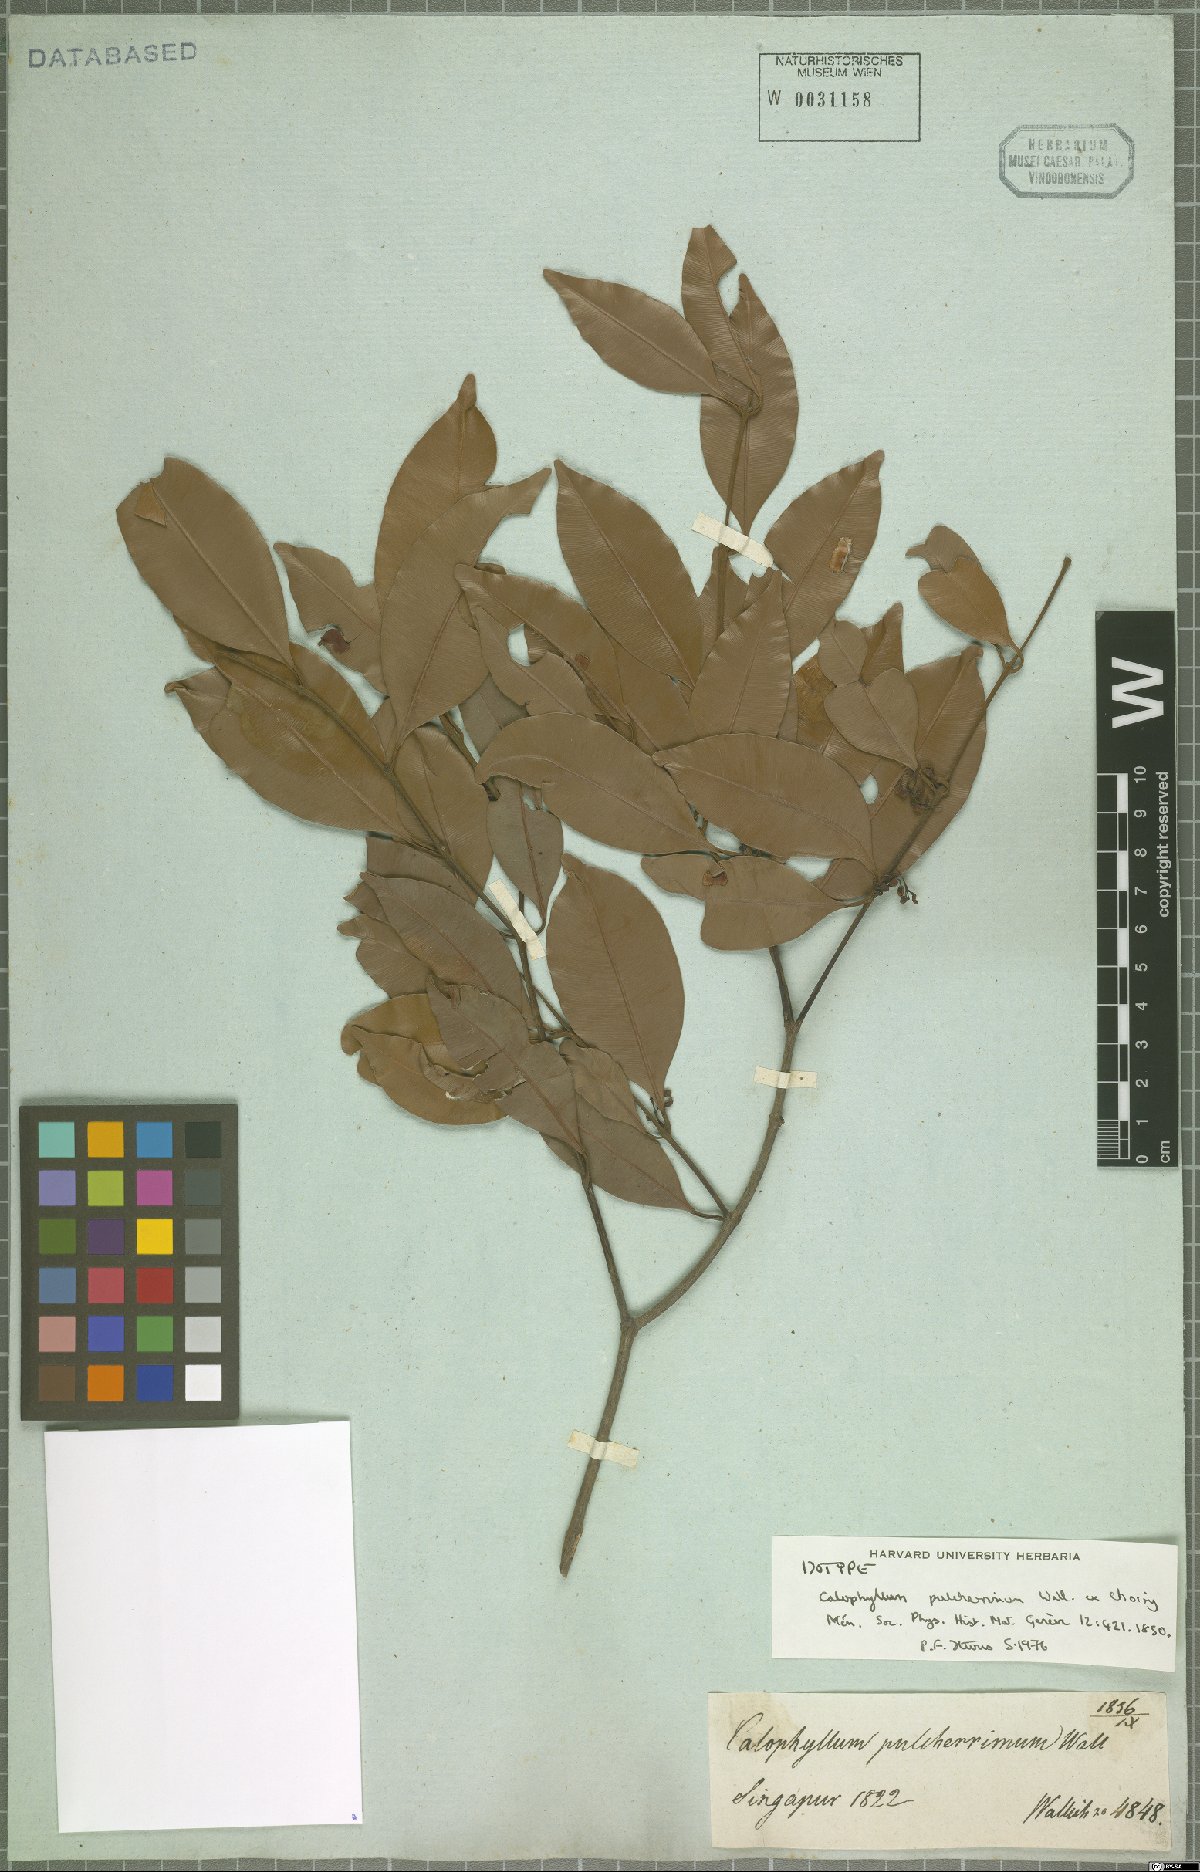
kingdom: Plantae
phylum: Tracheophyta
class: Magnoliopsida
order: Malpighiales
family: Calophyllaceae
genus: Calophyllum
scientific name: Calophyllum pulcherrimum
